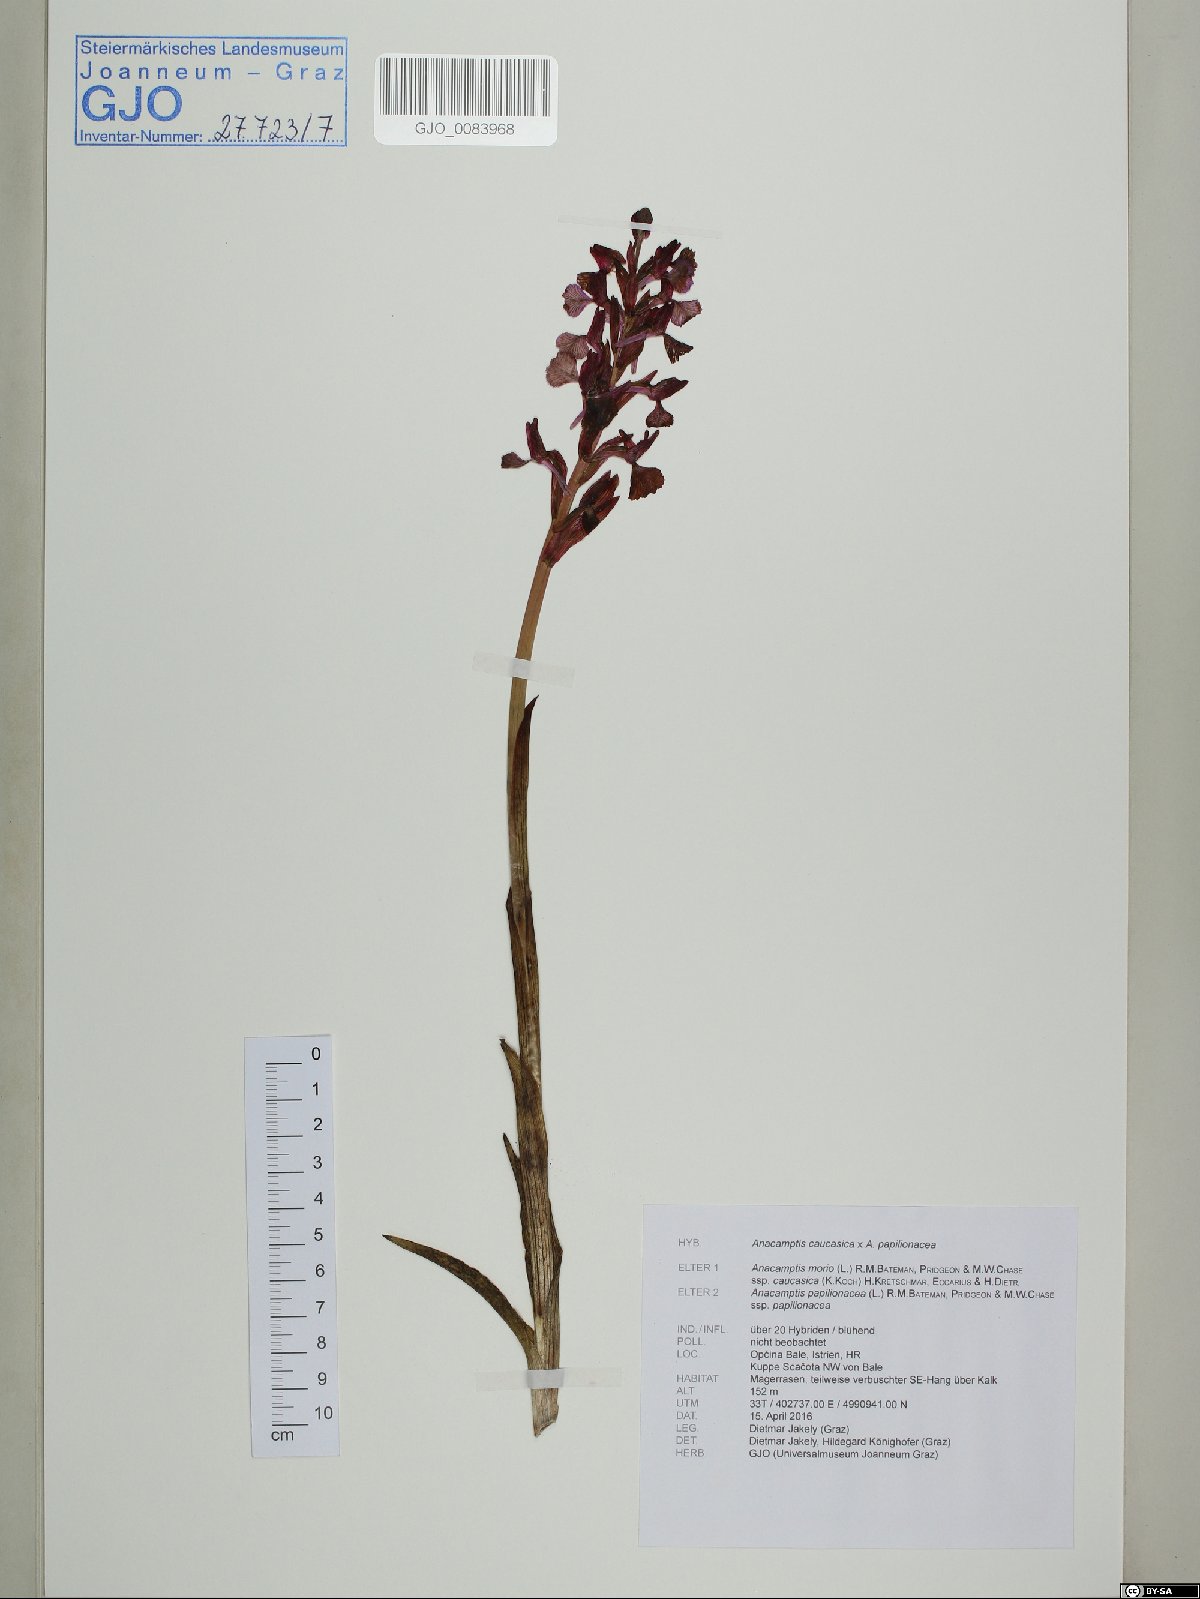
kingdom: Plantae
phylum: Tracheophyta
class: Liliopsida
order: Asparagales
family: Orchidaceae
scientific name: Orchidaceae
